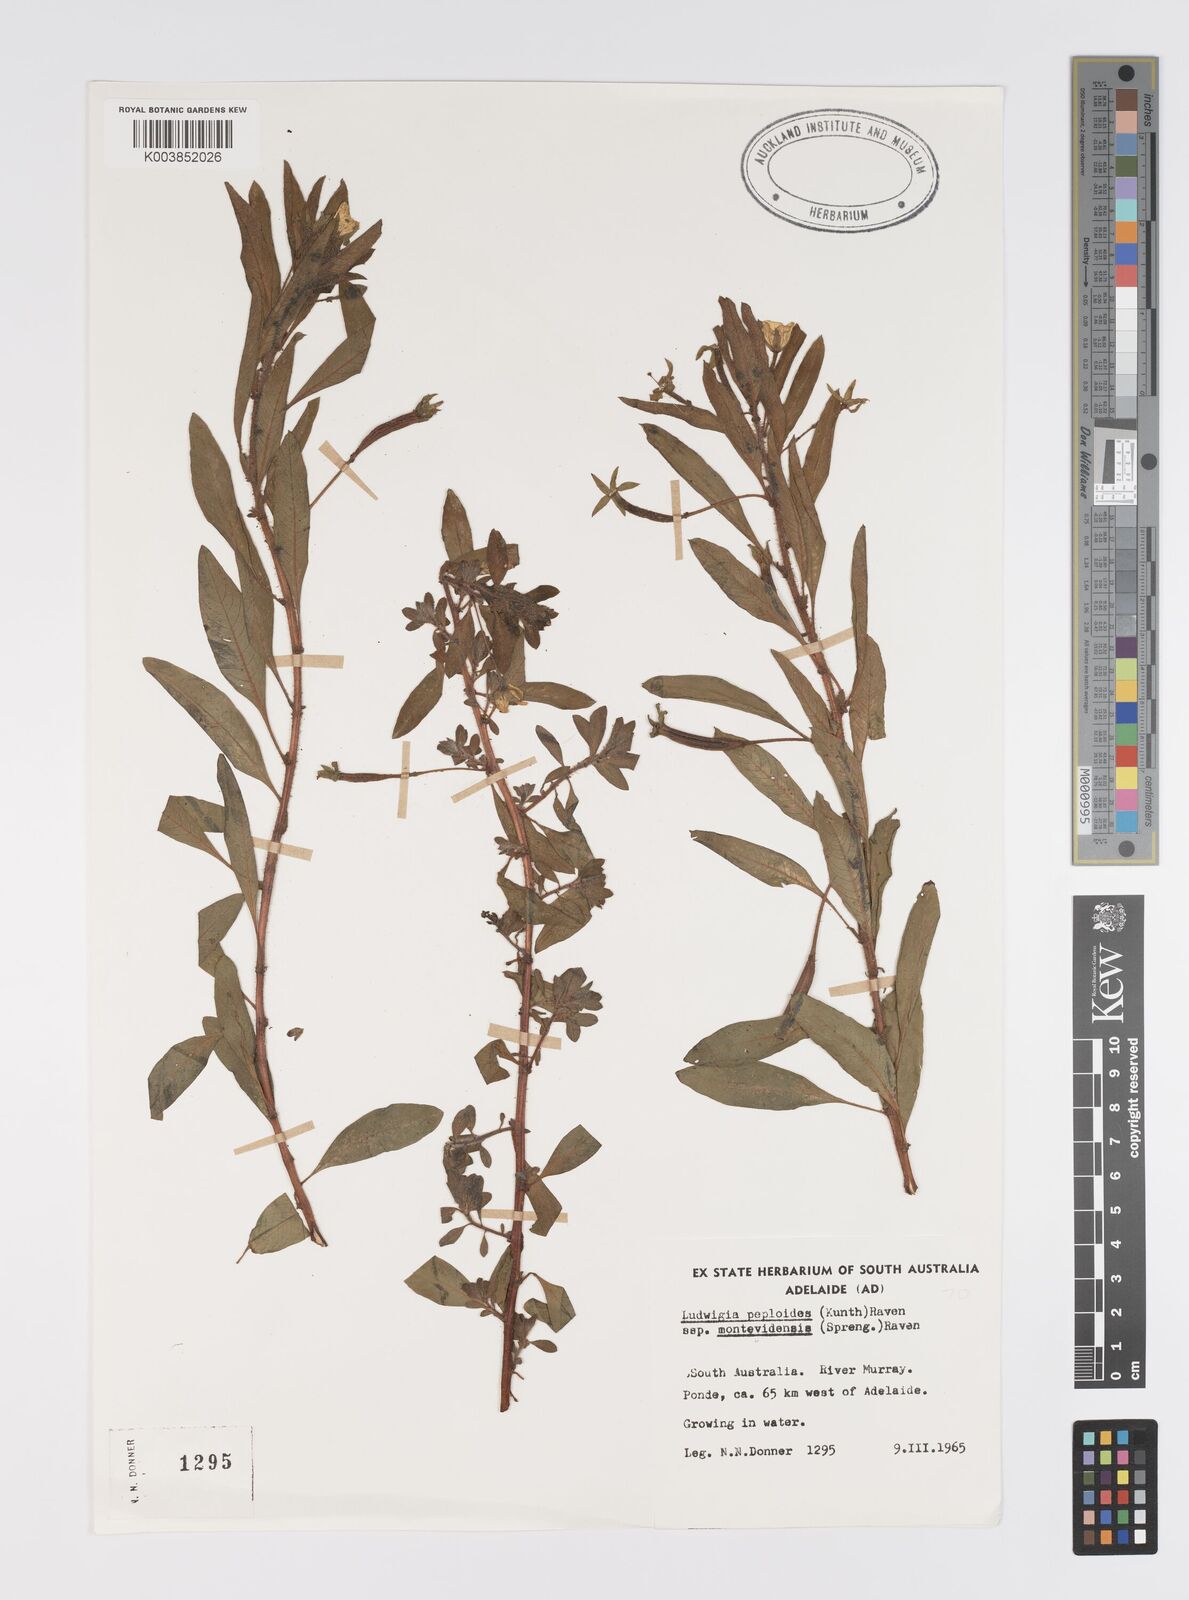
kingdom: Plantae
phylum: Tracheophyta
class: Magnoliopsida
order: Myrtales
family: Onagraceae
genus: Ludwigia
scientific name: Ludwigia peploides
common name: Floating primrose-willow
